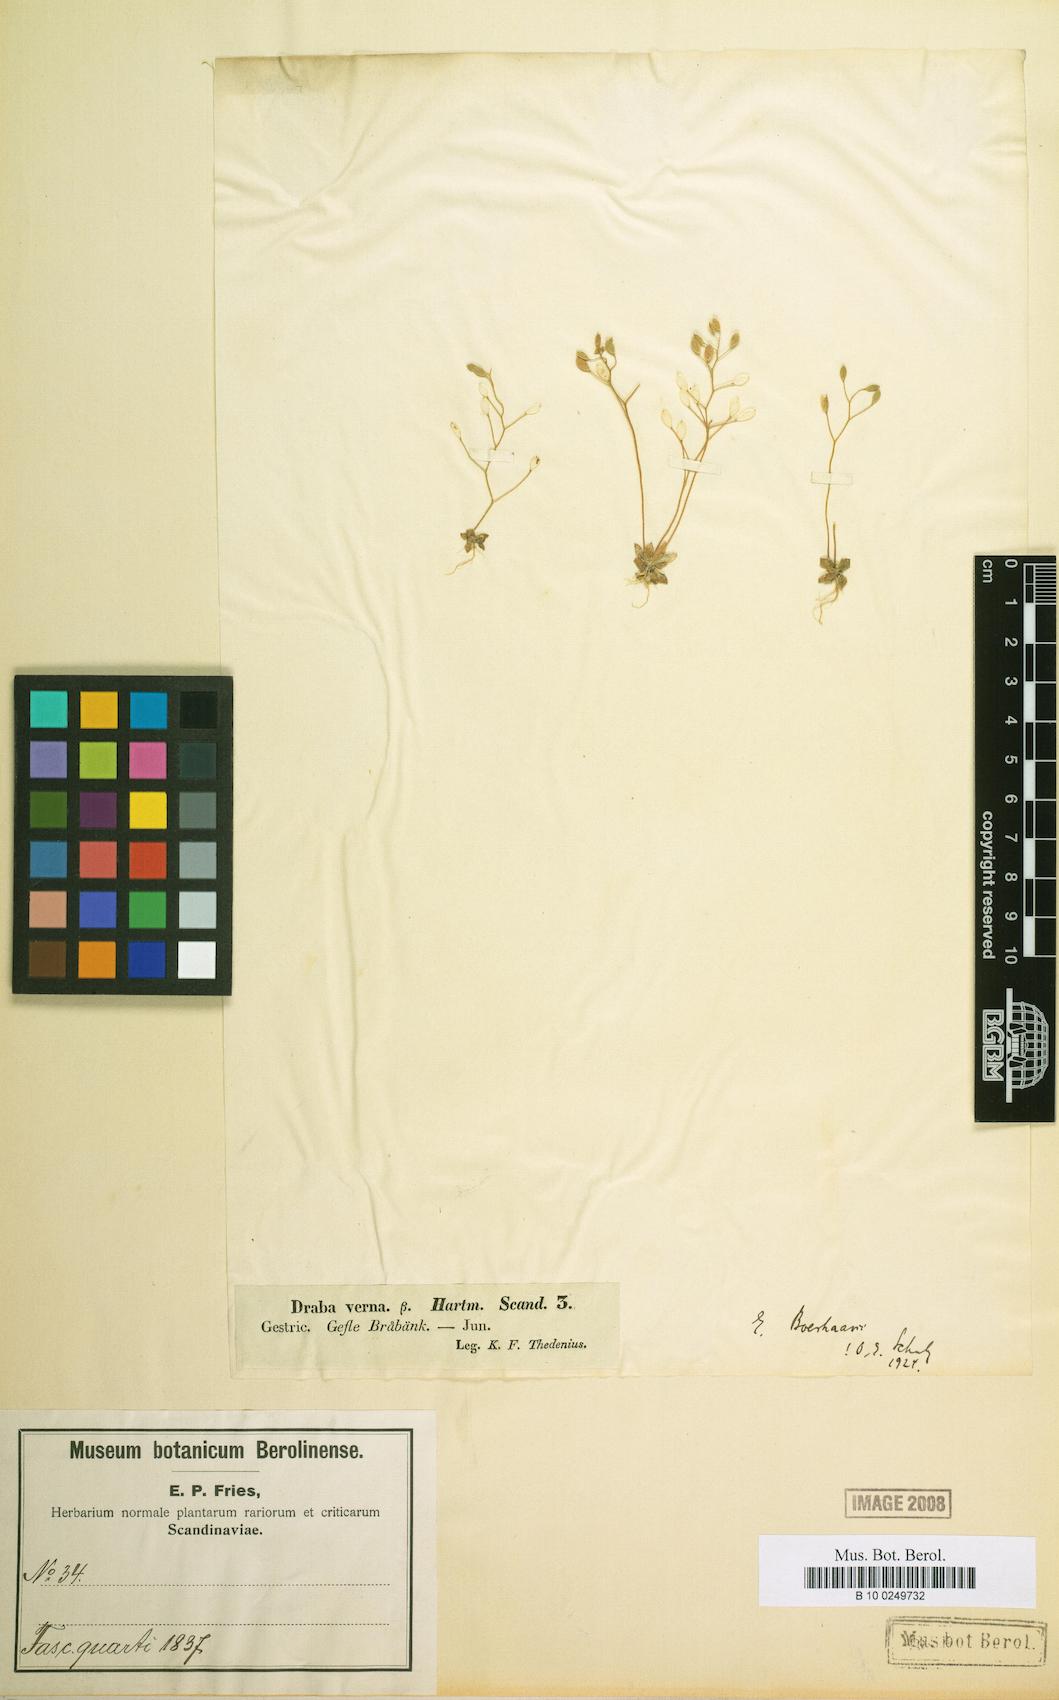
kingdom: Plantae
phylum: Tracheophyta
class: Magnoliopsida
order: Brassicales
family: Brassicaceae
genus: Draba
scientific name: Draba verna
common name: Spring draba
